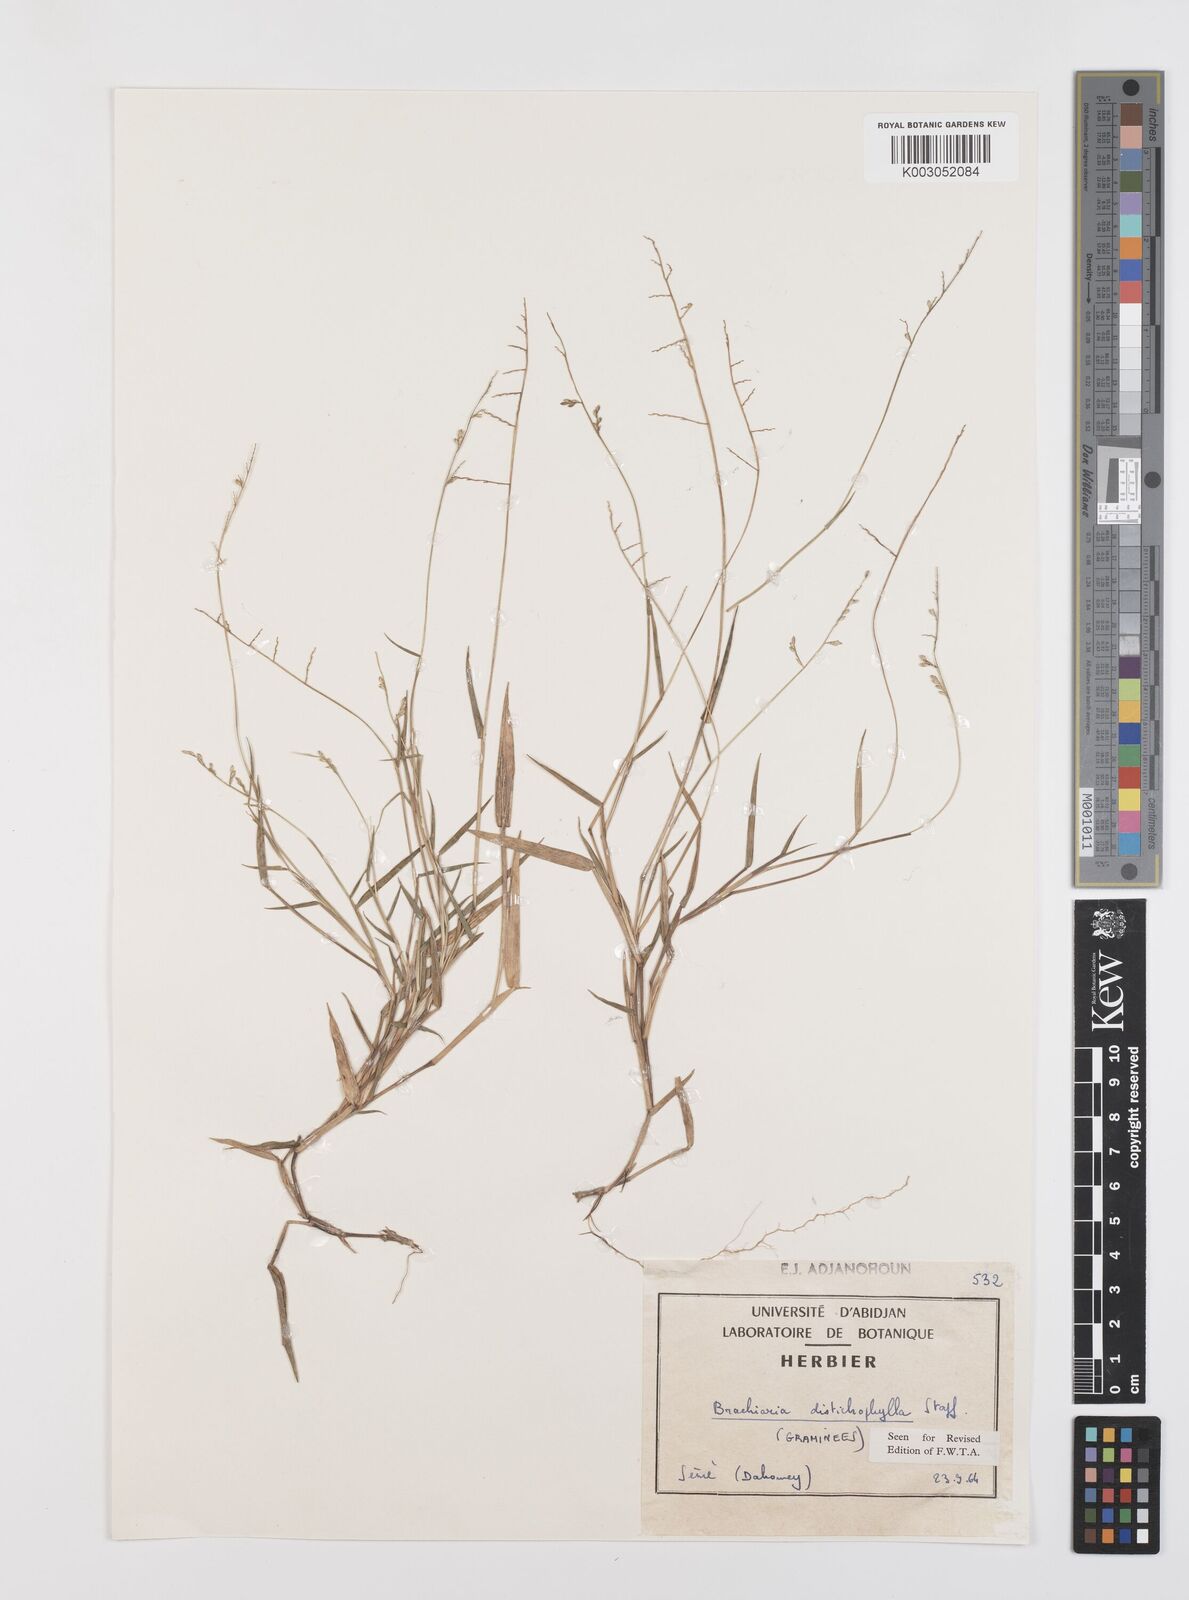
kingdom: Plantae
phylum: Tracheophyta
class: Liliopsida
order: Poales
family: Poaceae
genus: Urochloa
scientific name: Urochloa villosa
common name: Hairy signalgrass
